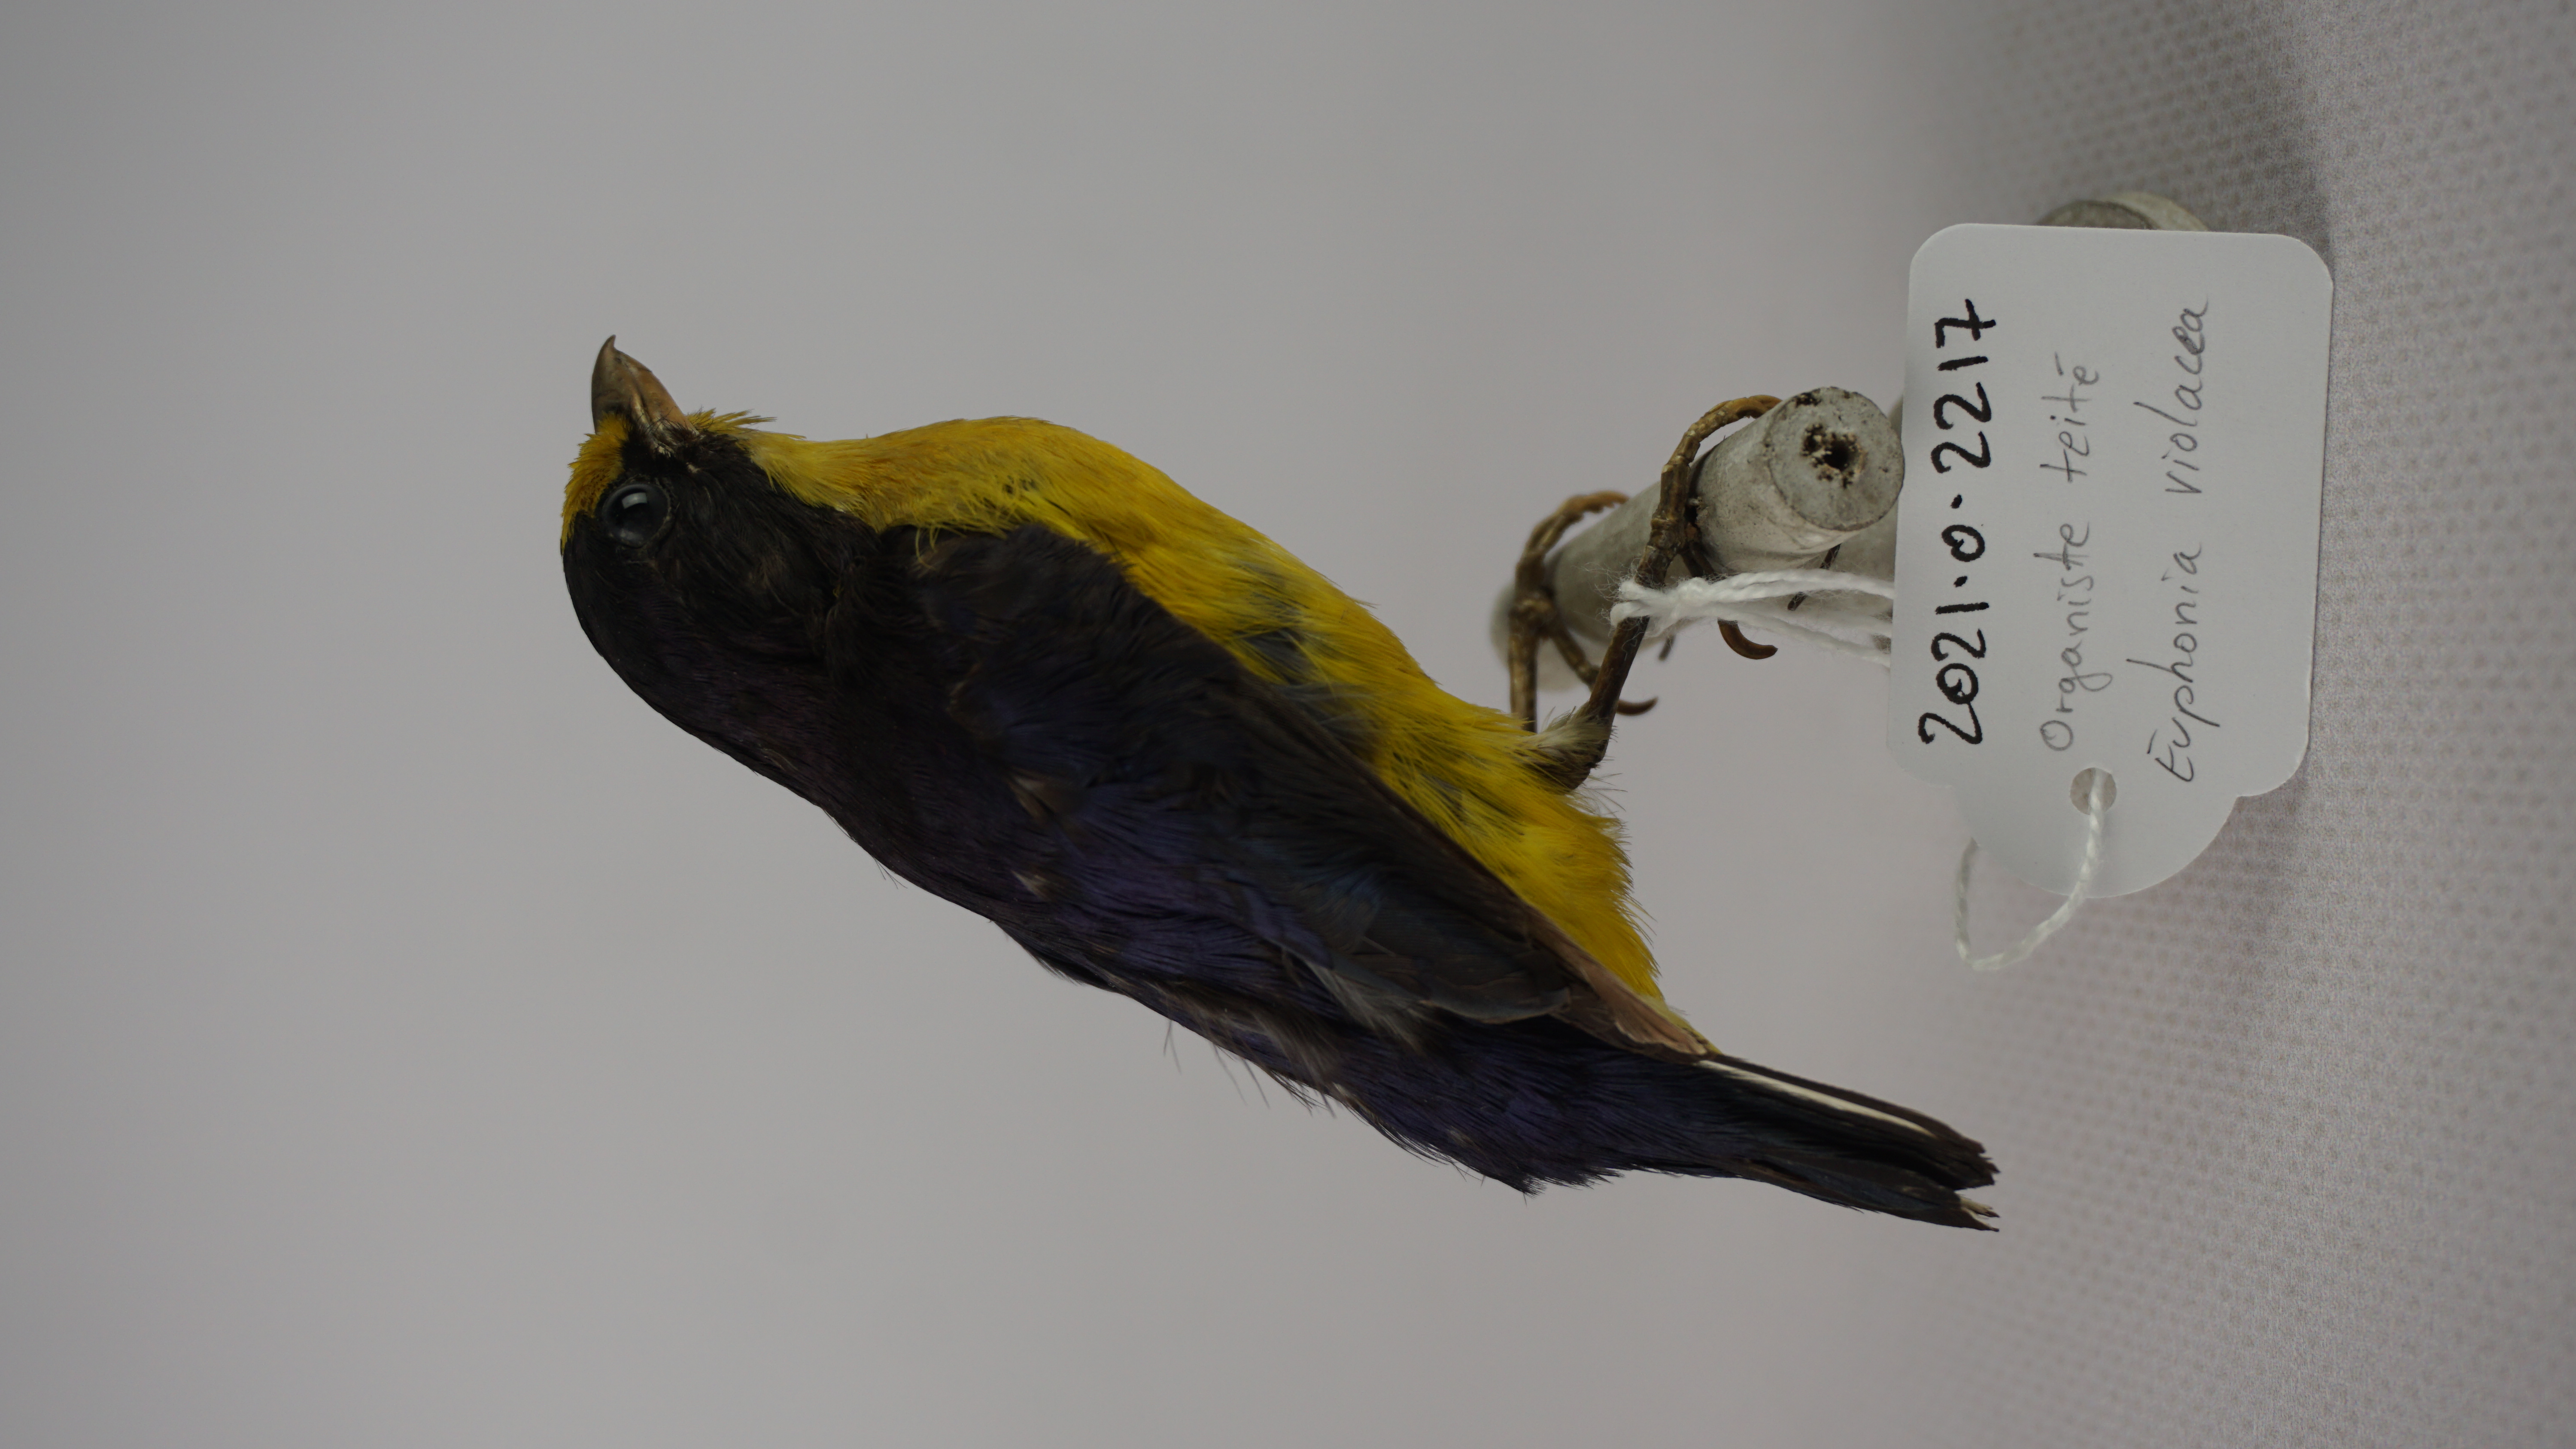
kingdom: Animalia
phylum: Chordata
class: Aves
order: Passeriformes
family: Fringillidae
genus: Euphonia
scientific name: Euphonia violacea
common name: Violaceous euphonia
